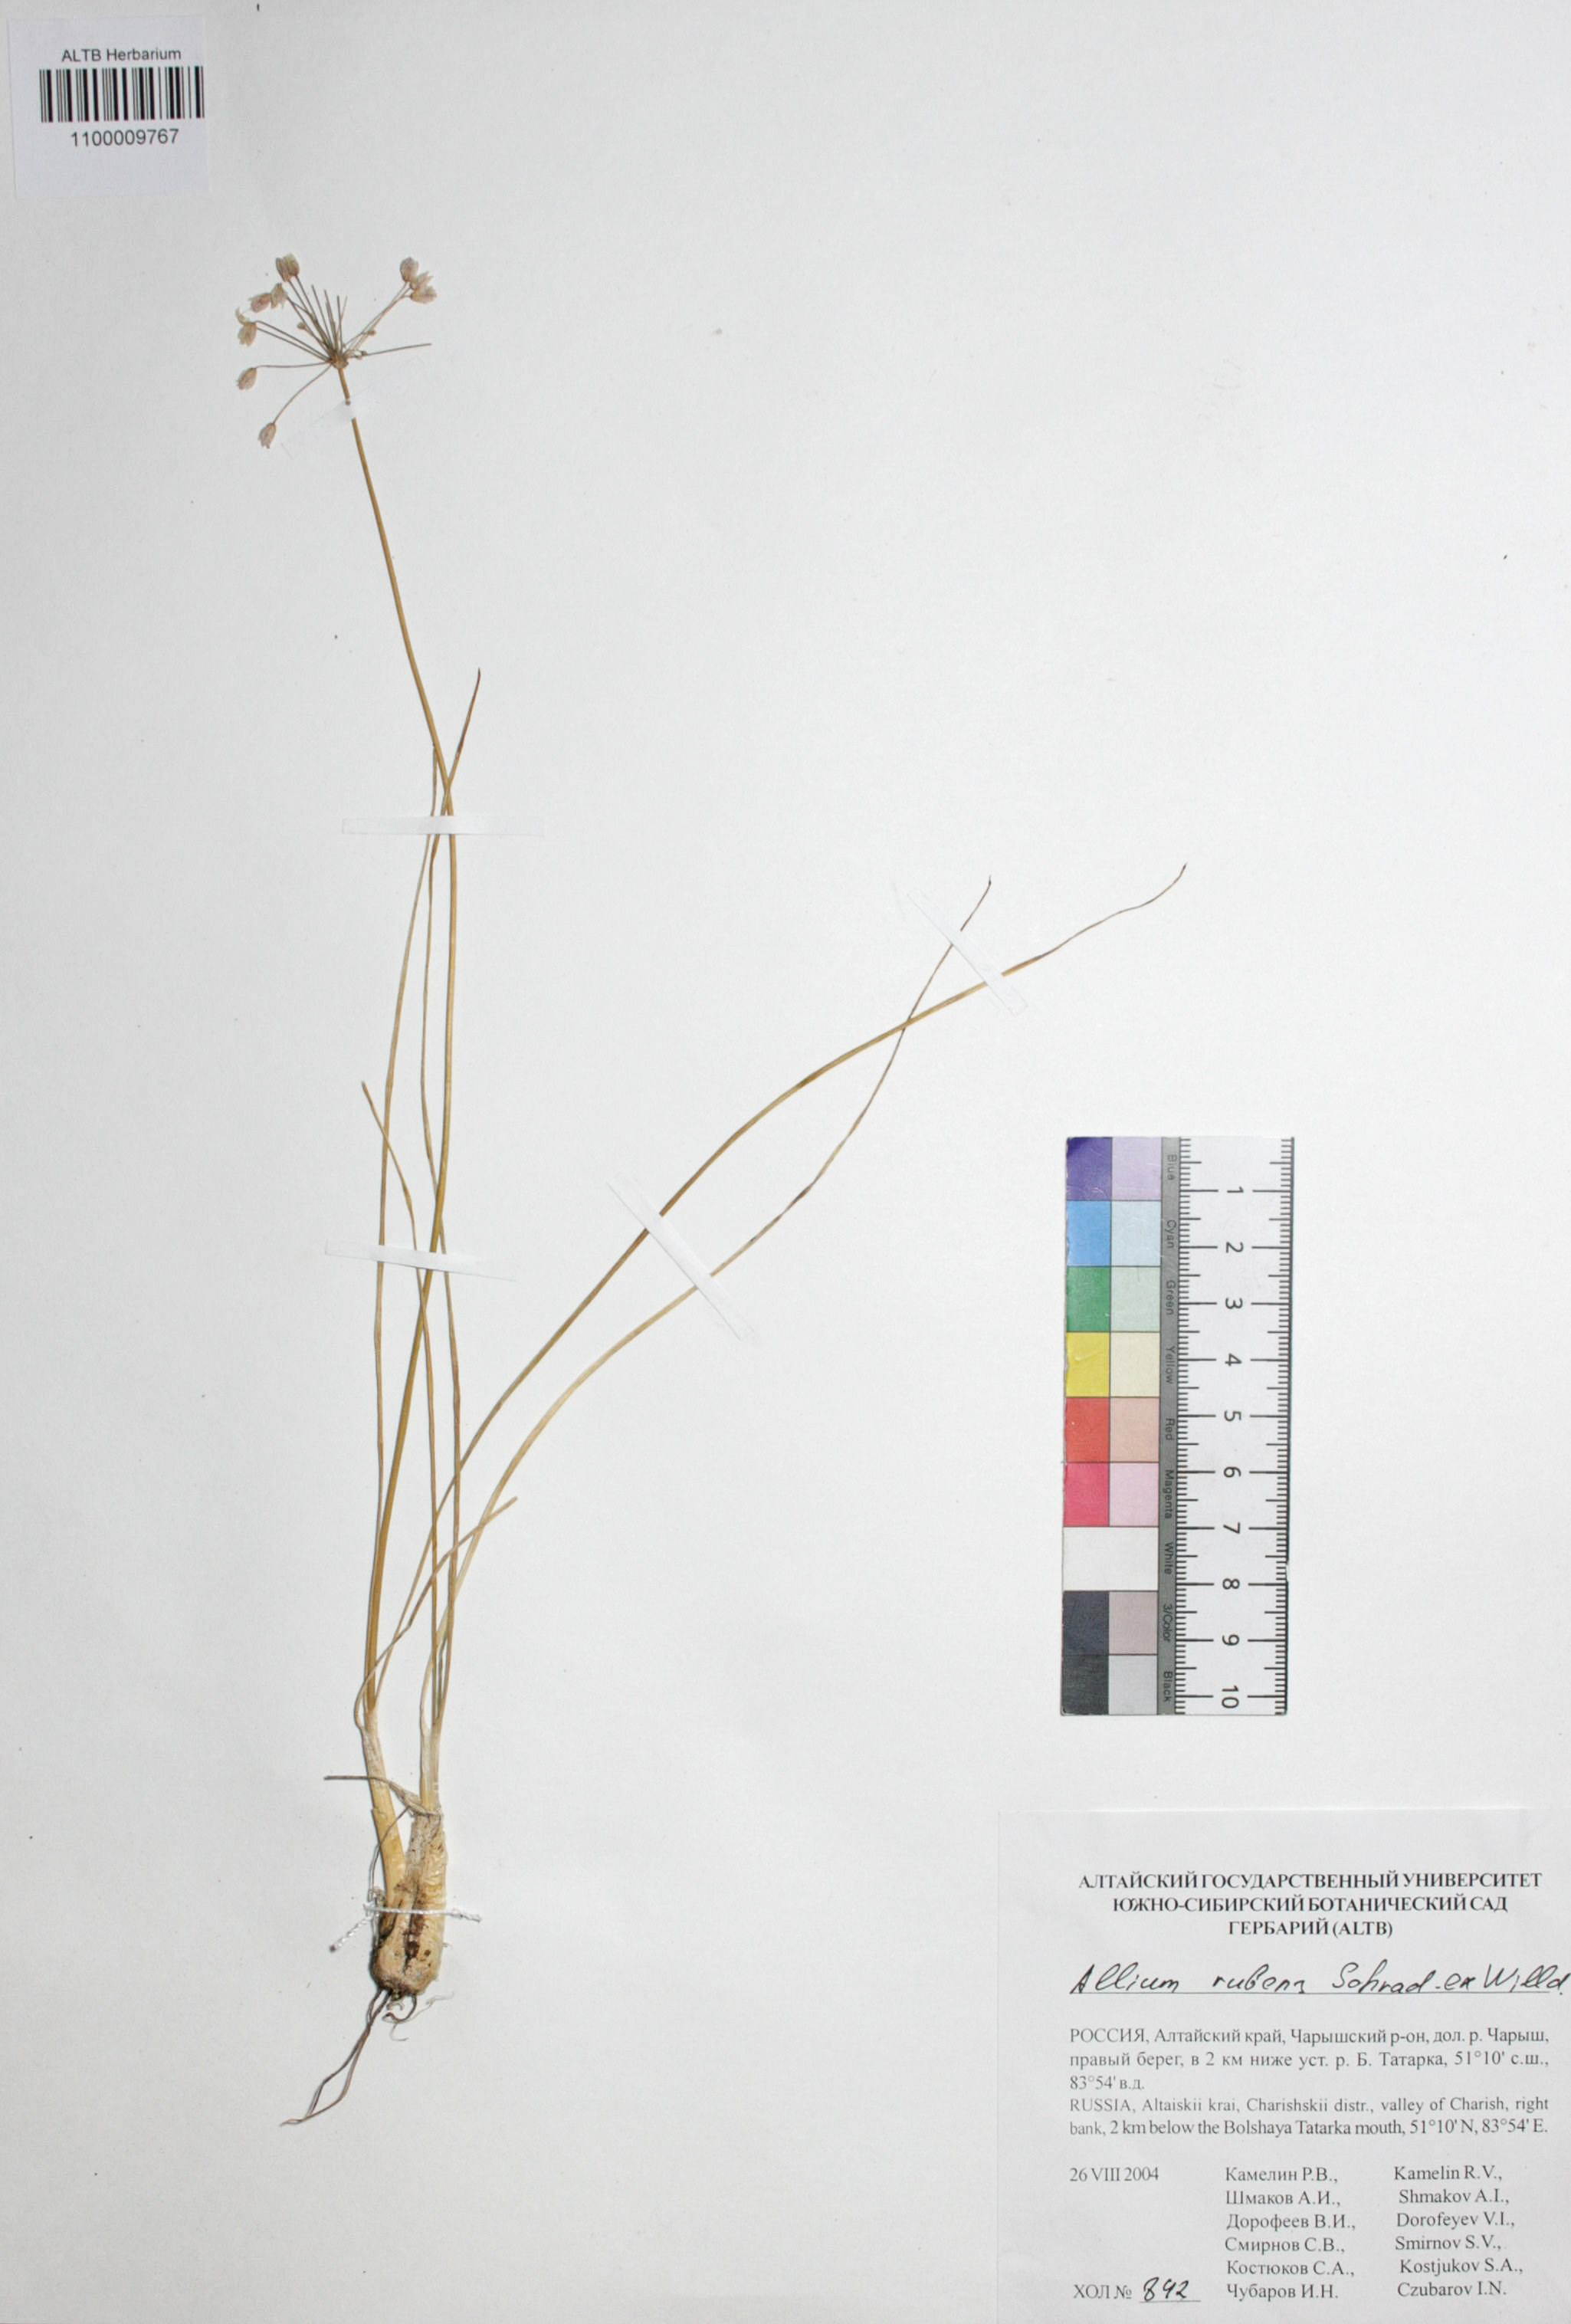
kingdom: Plantae
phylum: Tracheophyta
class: Liliopsida
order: Asparagales
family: Amaryllidaceae
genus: Allium
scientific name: Allium rubens
